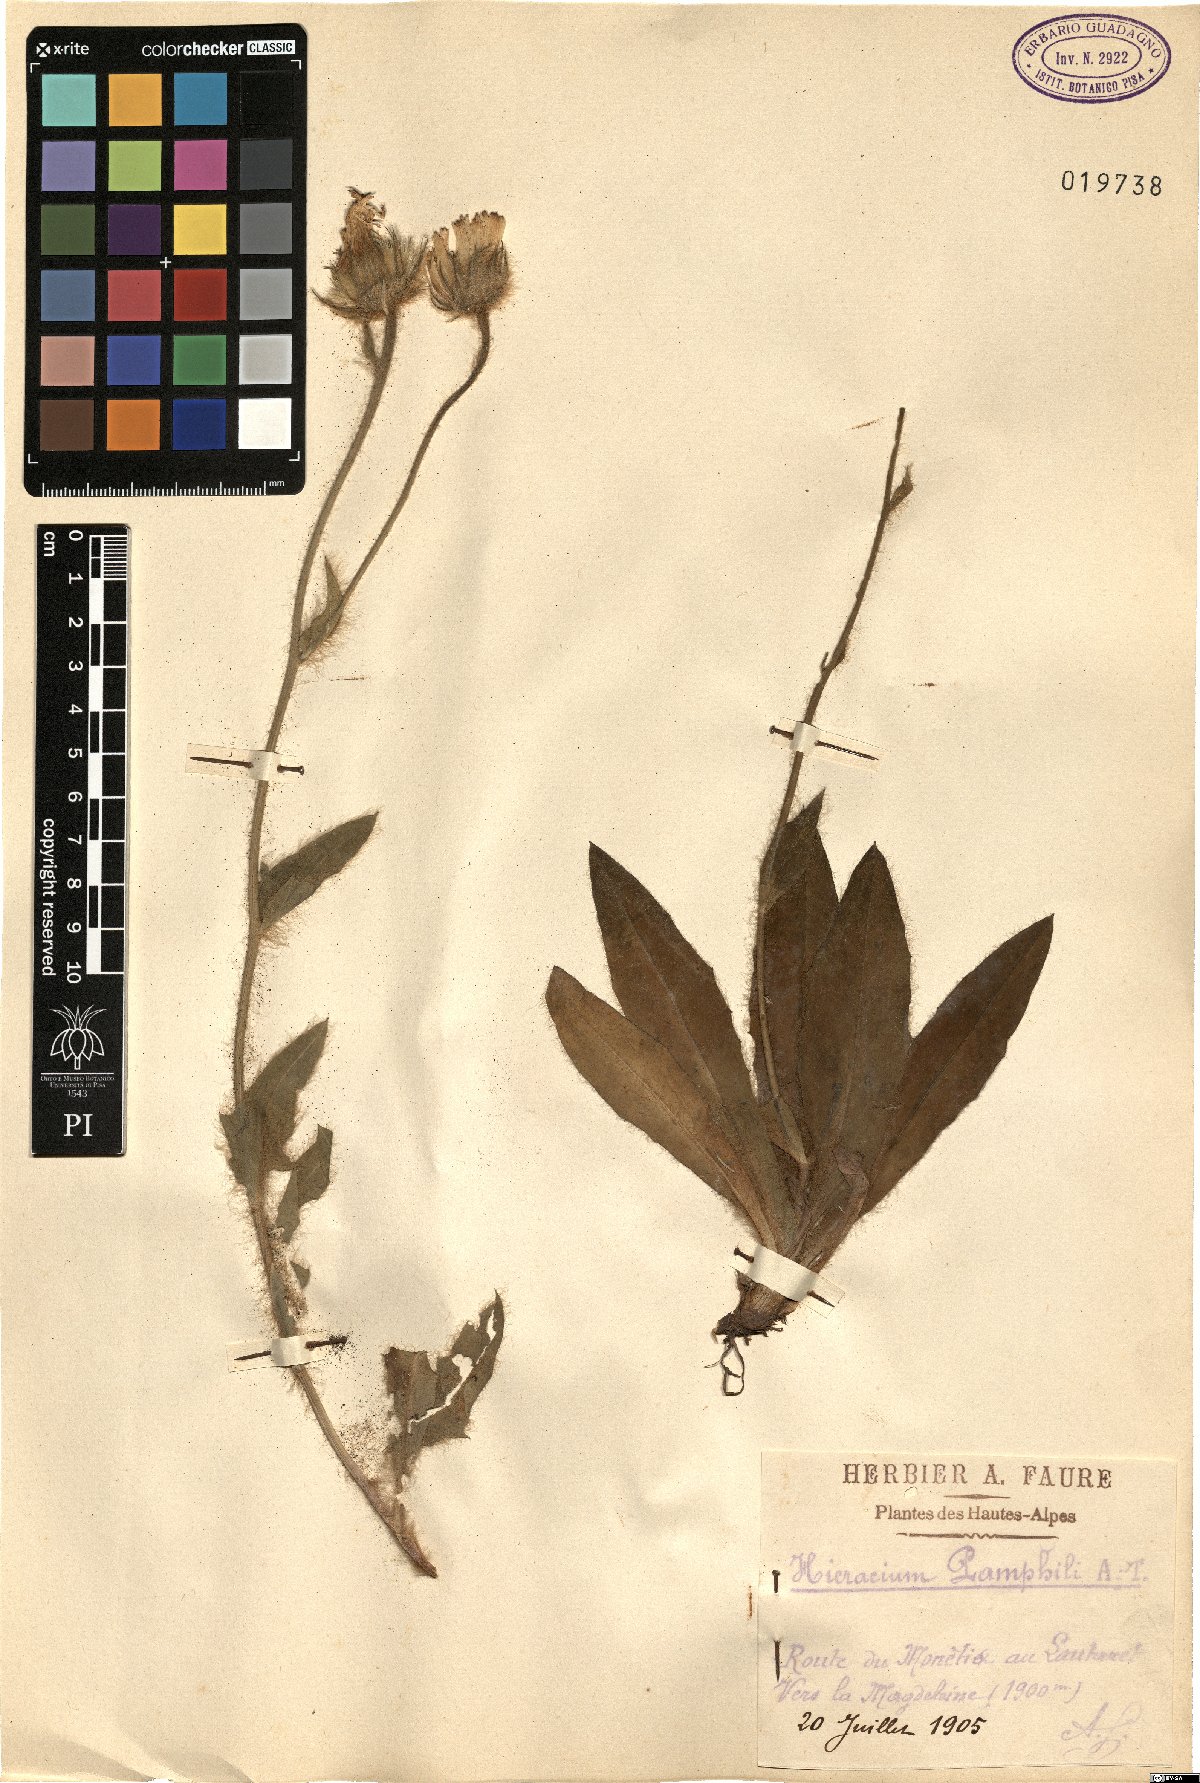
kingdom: Plantae
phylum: Tracheophyta
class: Magnoliopsida
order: Asterales
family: Asteraceae
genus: Hieracium
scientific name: Hieracium pamphilii
